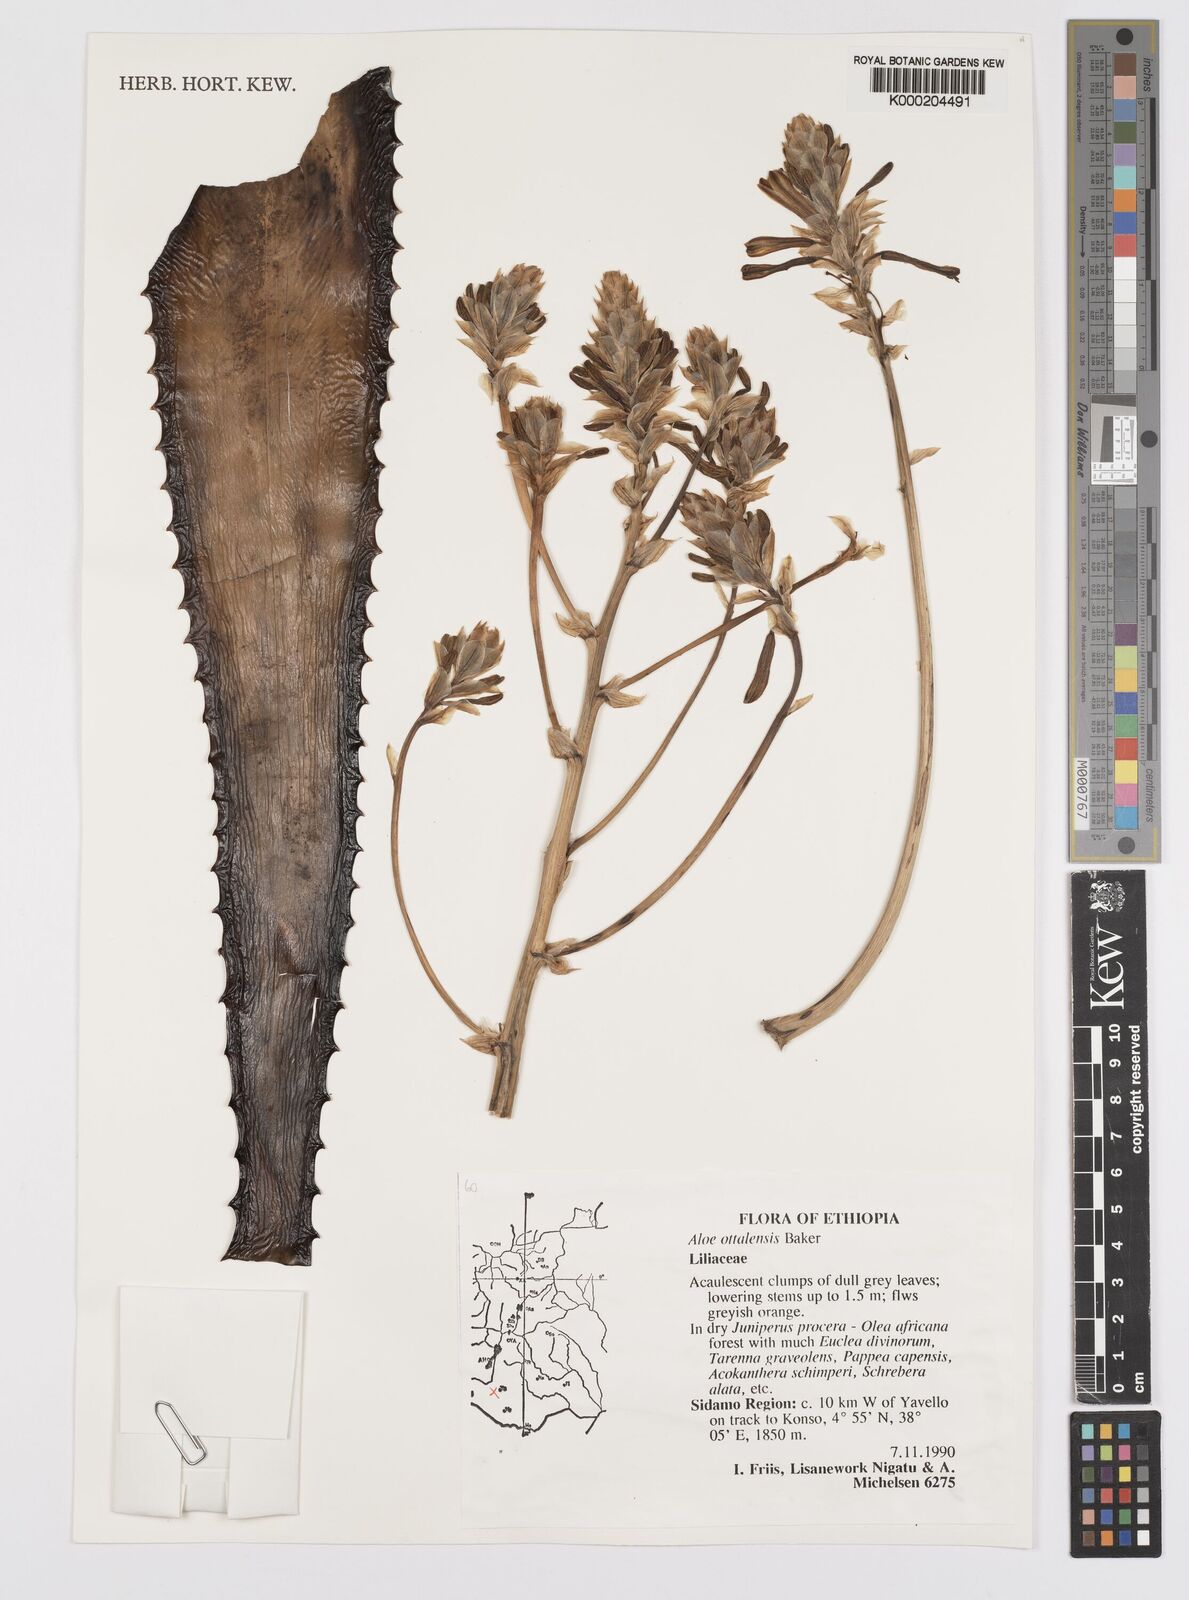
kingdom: Plantae
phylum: Tracheophyta
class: Liliopsida
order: Asparagales
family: Asphodelaceae
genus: Aloe
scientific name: Aloe otallensis
